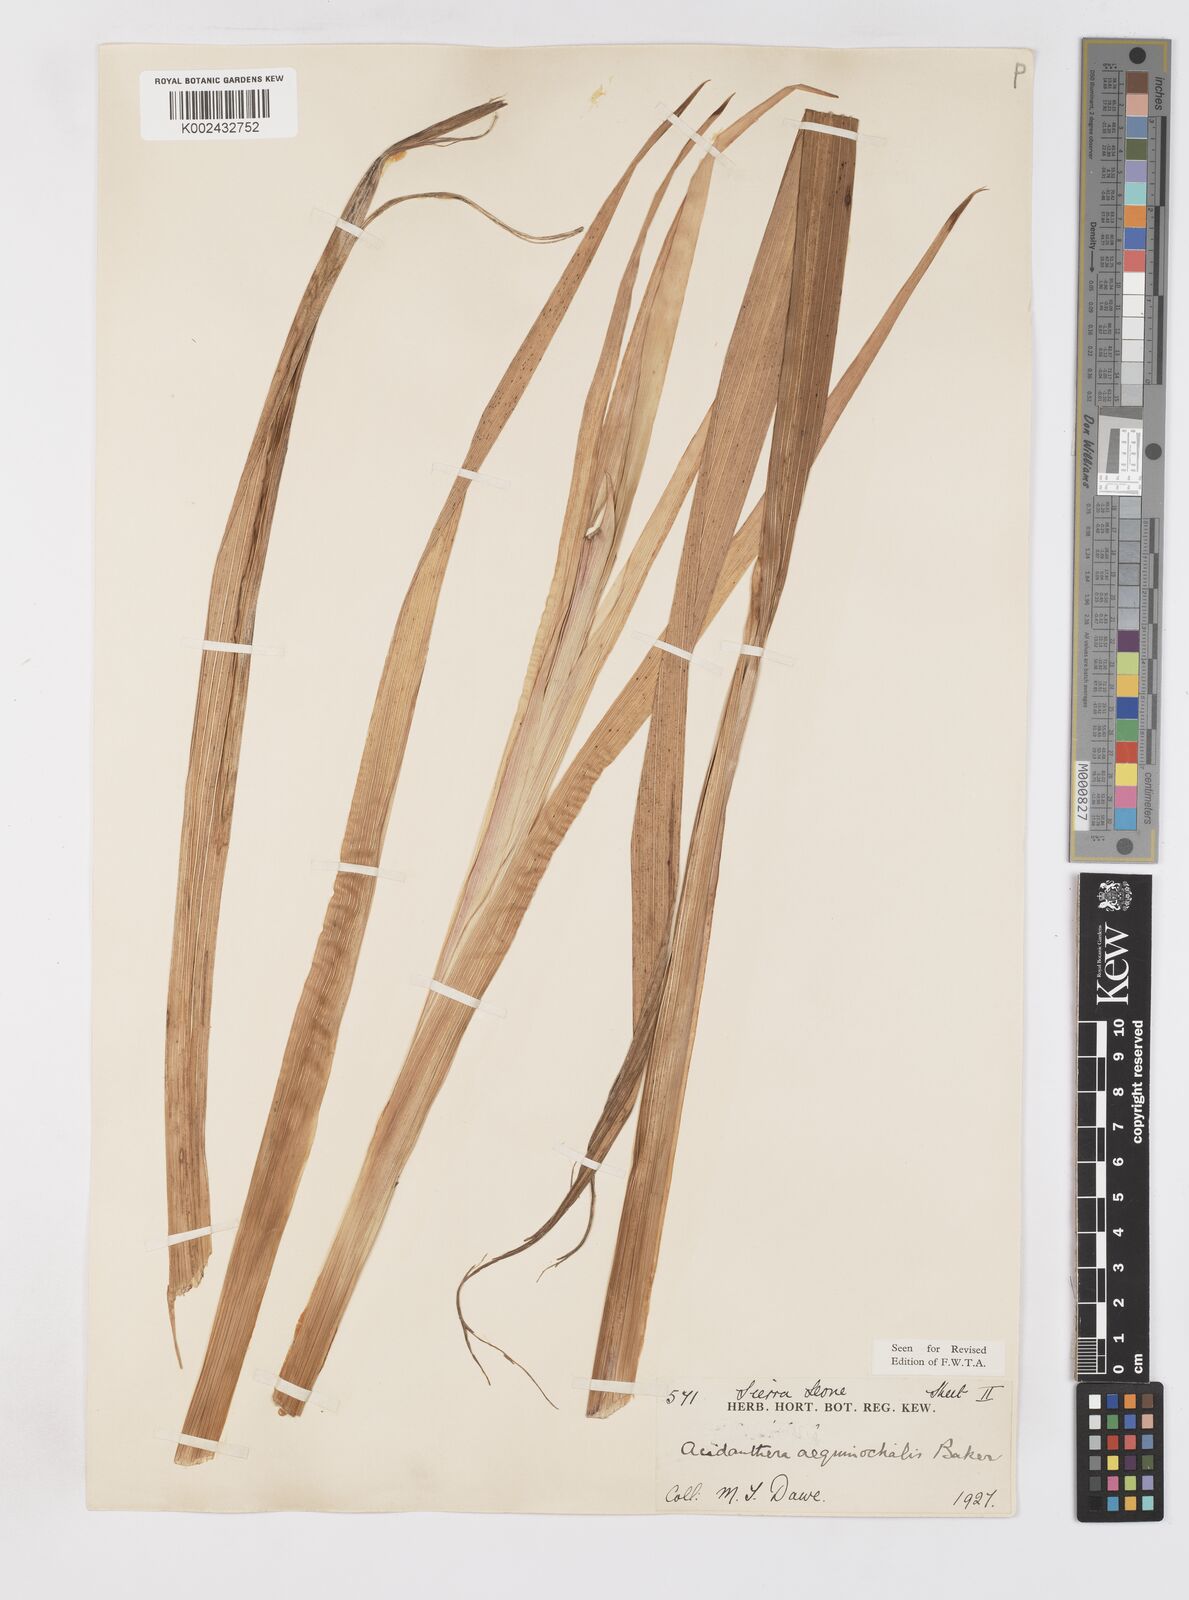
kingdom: Plantae
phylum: Tracheophyta
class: Liliopsida
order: Asparagales
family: Iridaceae
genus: Gladiolus
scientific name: Gladiolus aequinoctialis
